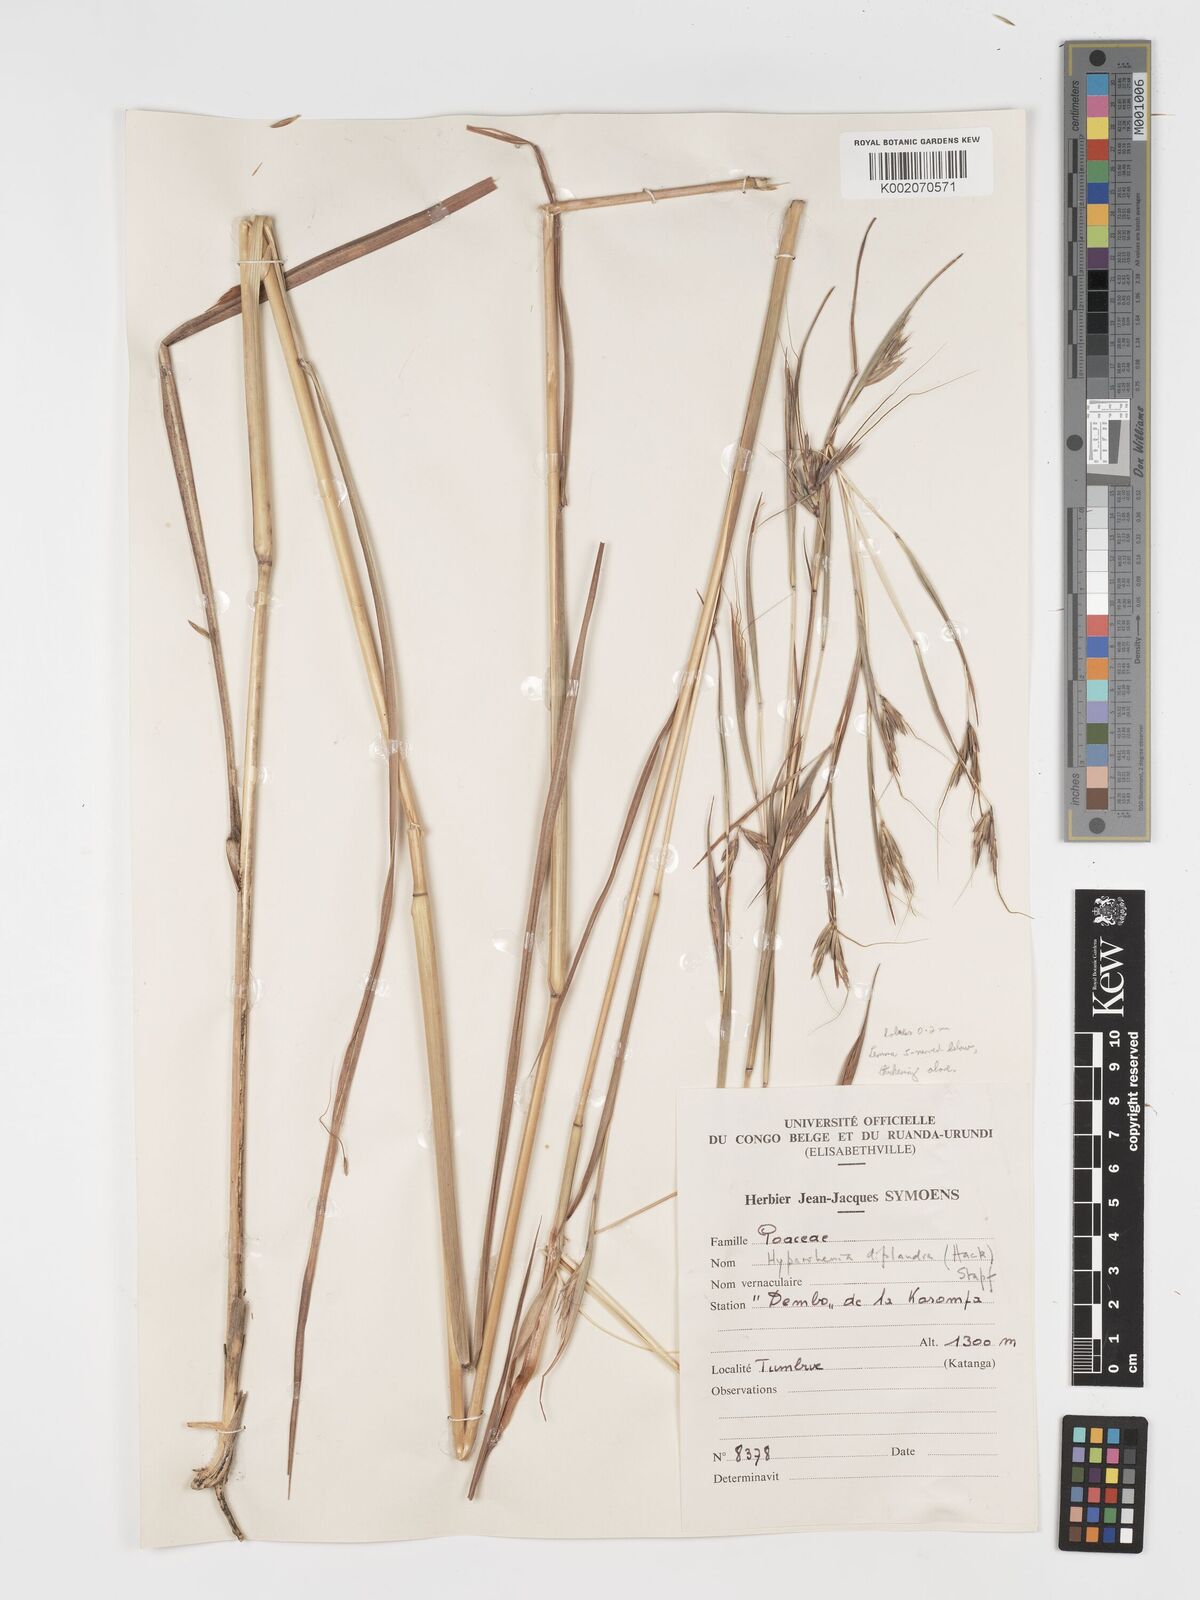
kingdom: Plantae
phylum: Tracheophyta
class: Liliopsida
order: Poales
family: Poaceae
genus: Hyparrhenia
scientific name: Hyparrhenia diplandra
